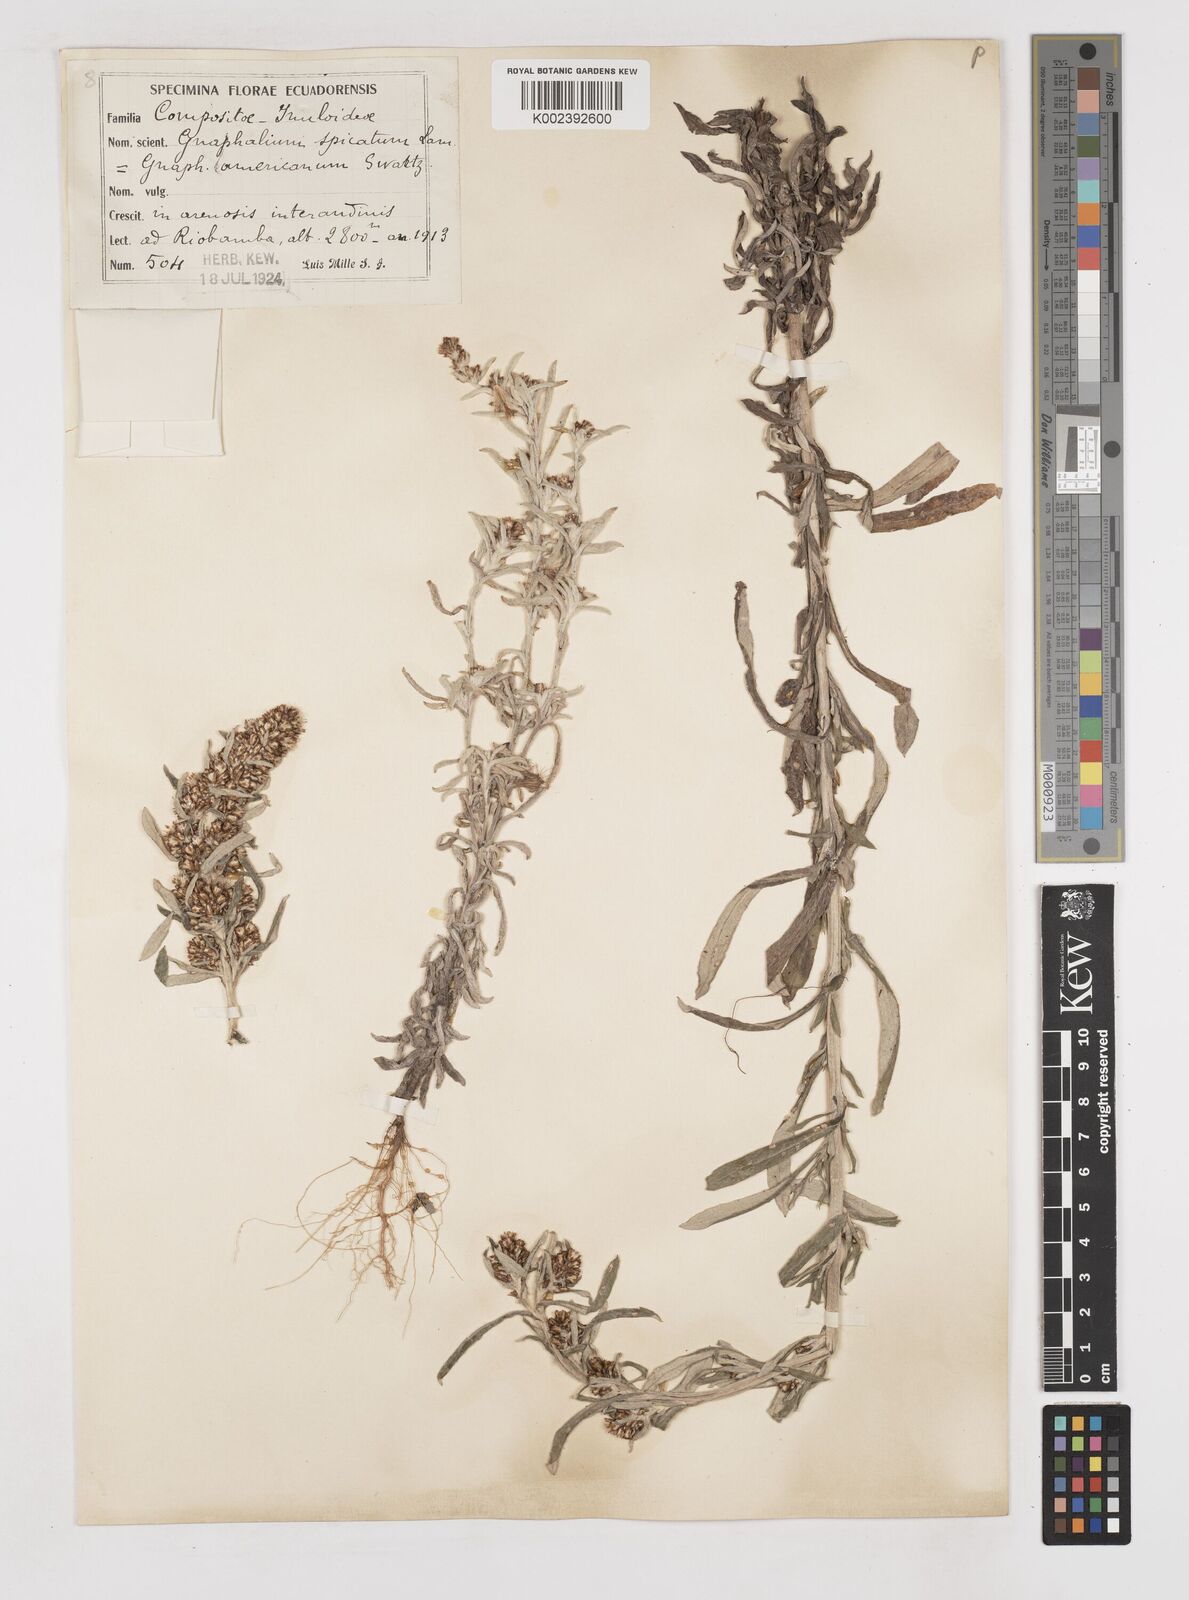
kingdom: Plantae
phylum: Tracheophyta
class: Magnoliopsida
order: Asterales
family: Asteraceae
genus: Gamochaeta
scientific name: Gamochaeta americana
